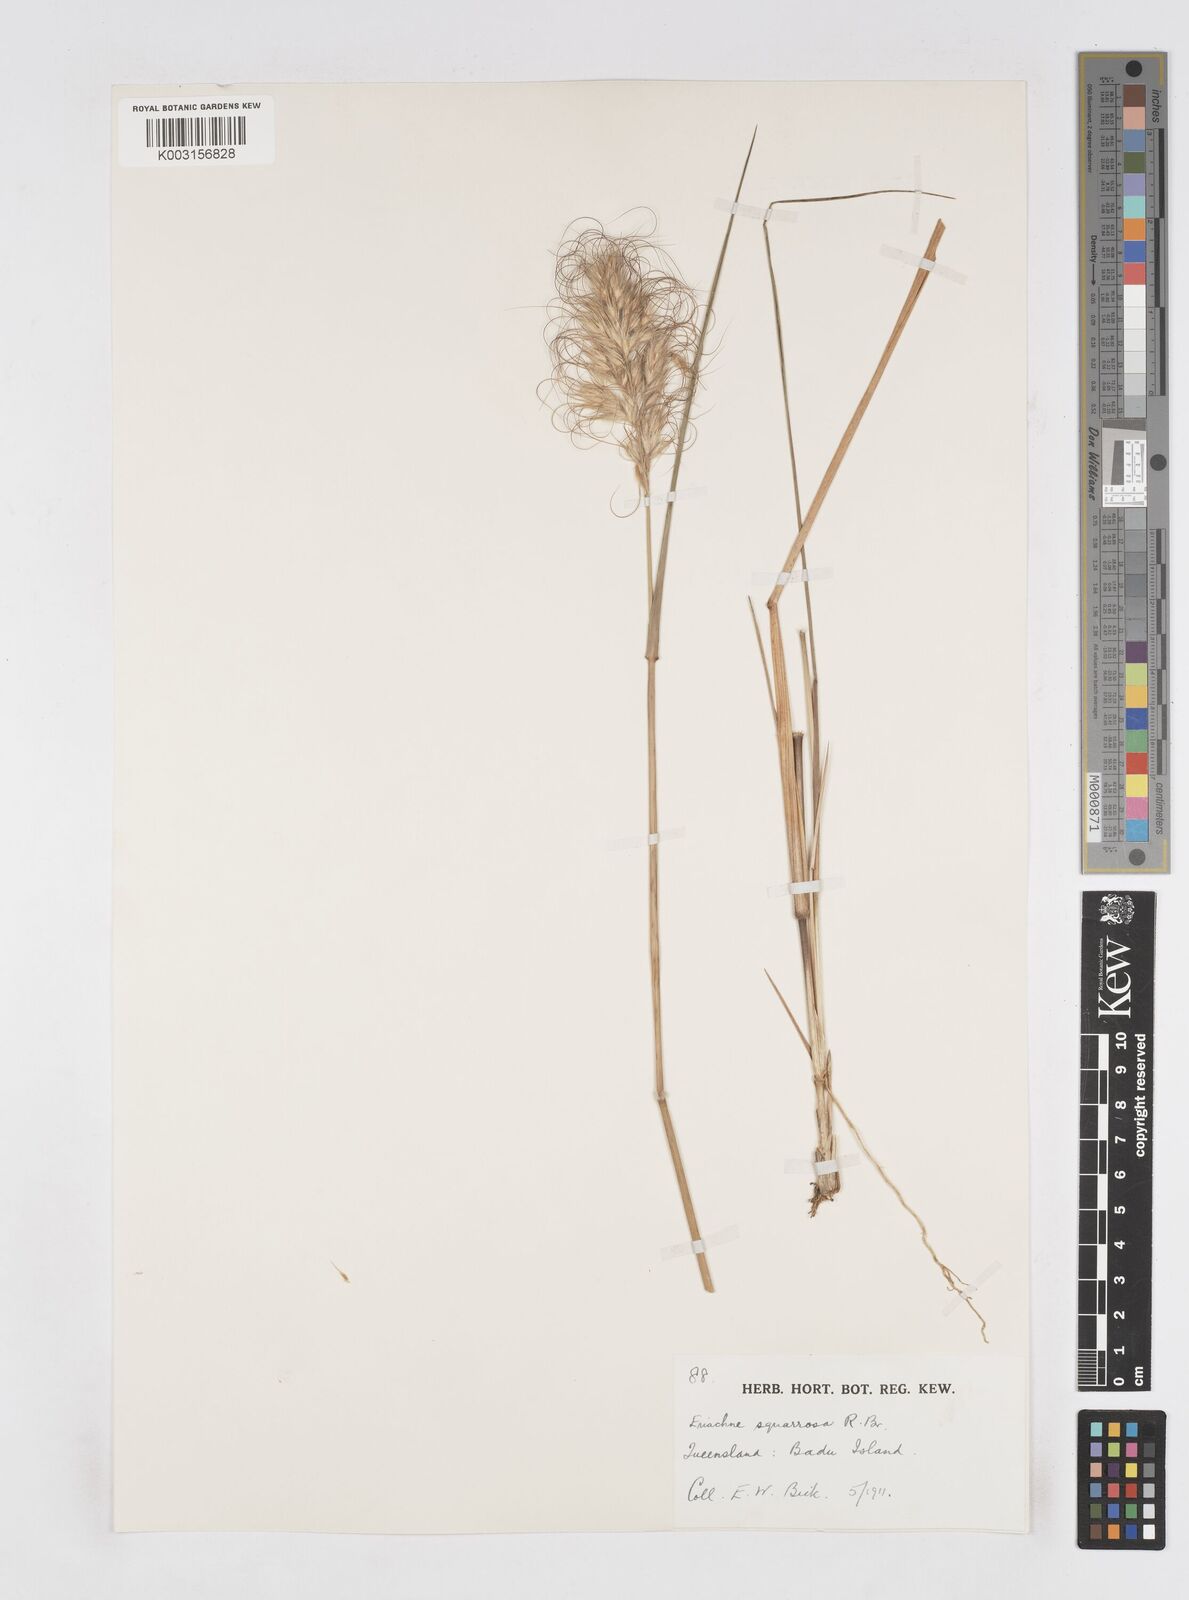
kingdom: Plantae
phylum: Tracheophyta
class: Liliopsida
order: Poales
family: Poaceae
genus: Eriachne
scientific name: Eriachne squarrosa
